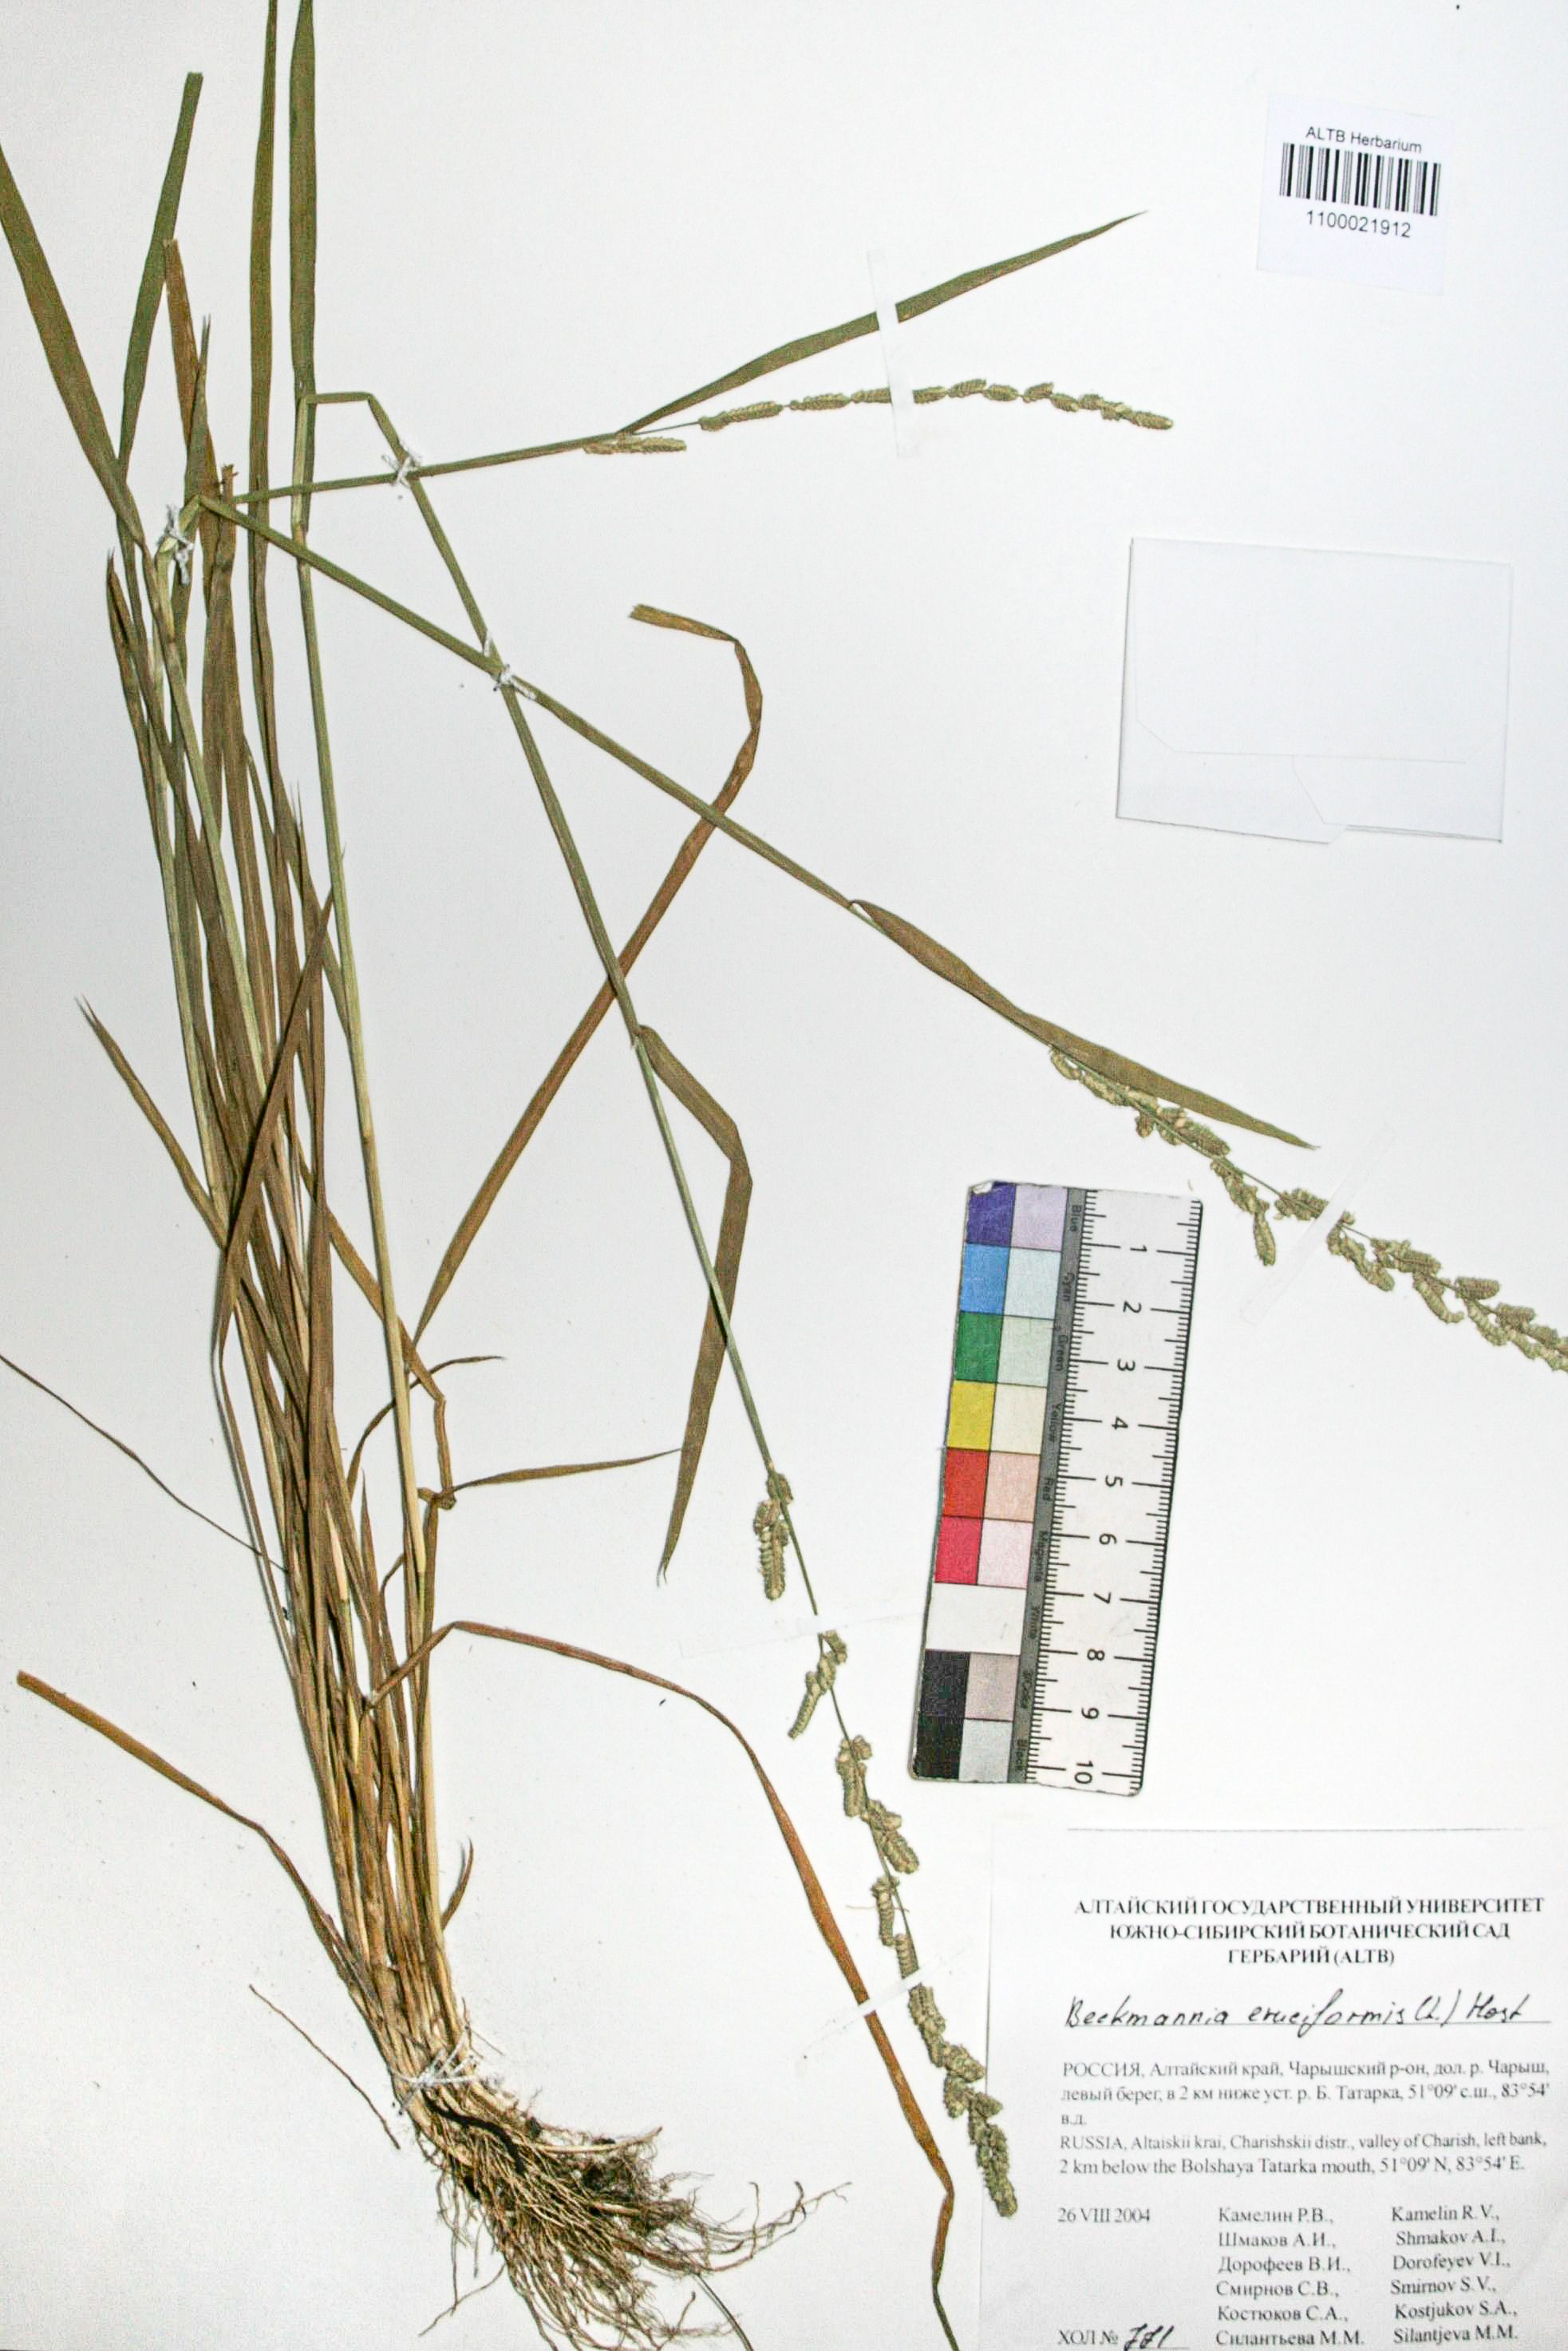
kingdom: Plantae
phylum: Tracheophyta
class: Liliopsida
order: Poales
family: Poaceae
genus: Beckmannia
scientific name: Beckmannia syzigachne
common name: American slough-grass
